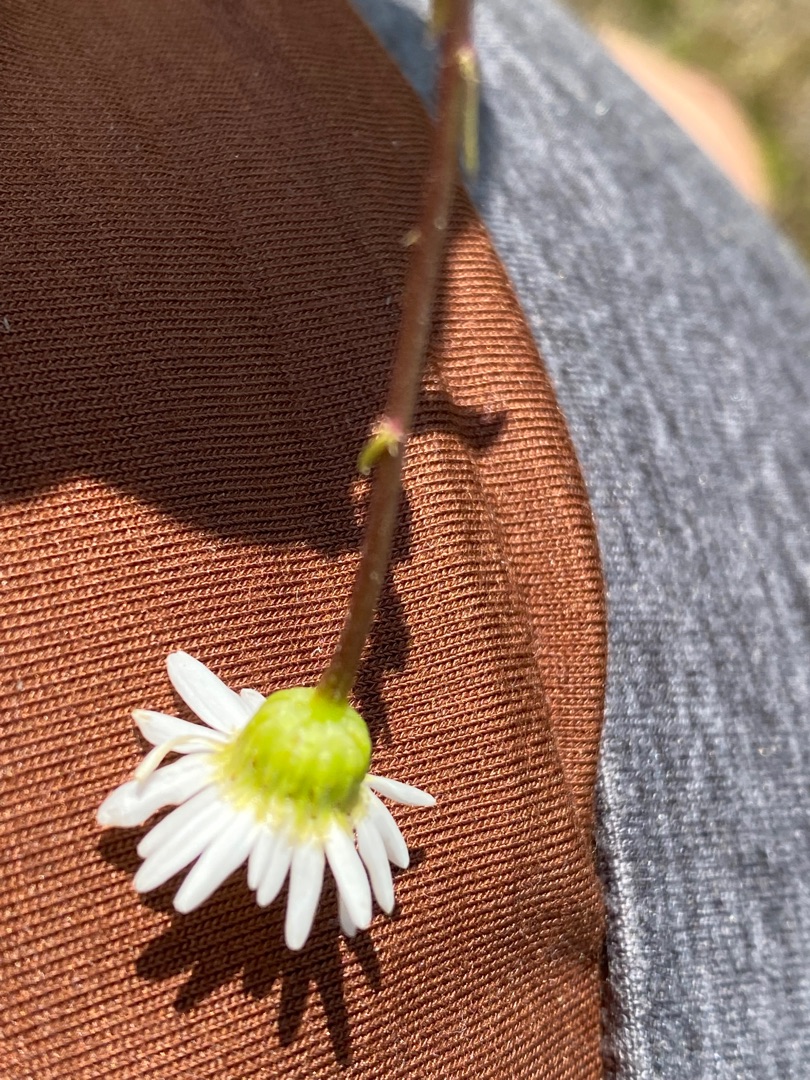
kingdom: Plantae
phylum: Tracheophyta
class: Magnoliopsida
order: Asterales
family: Asteraceae
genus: Leucanthemum
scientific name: Leucanthemum vulgare
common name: Hvid okseøje
